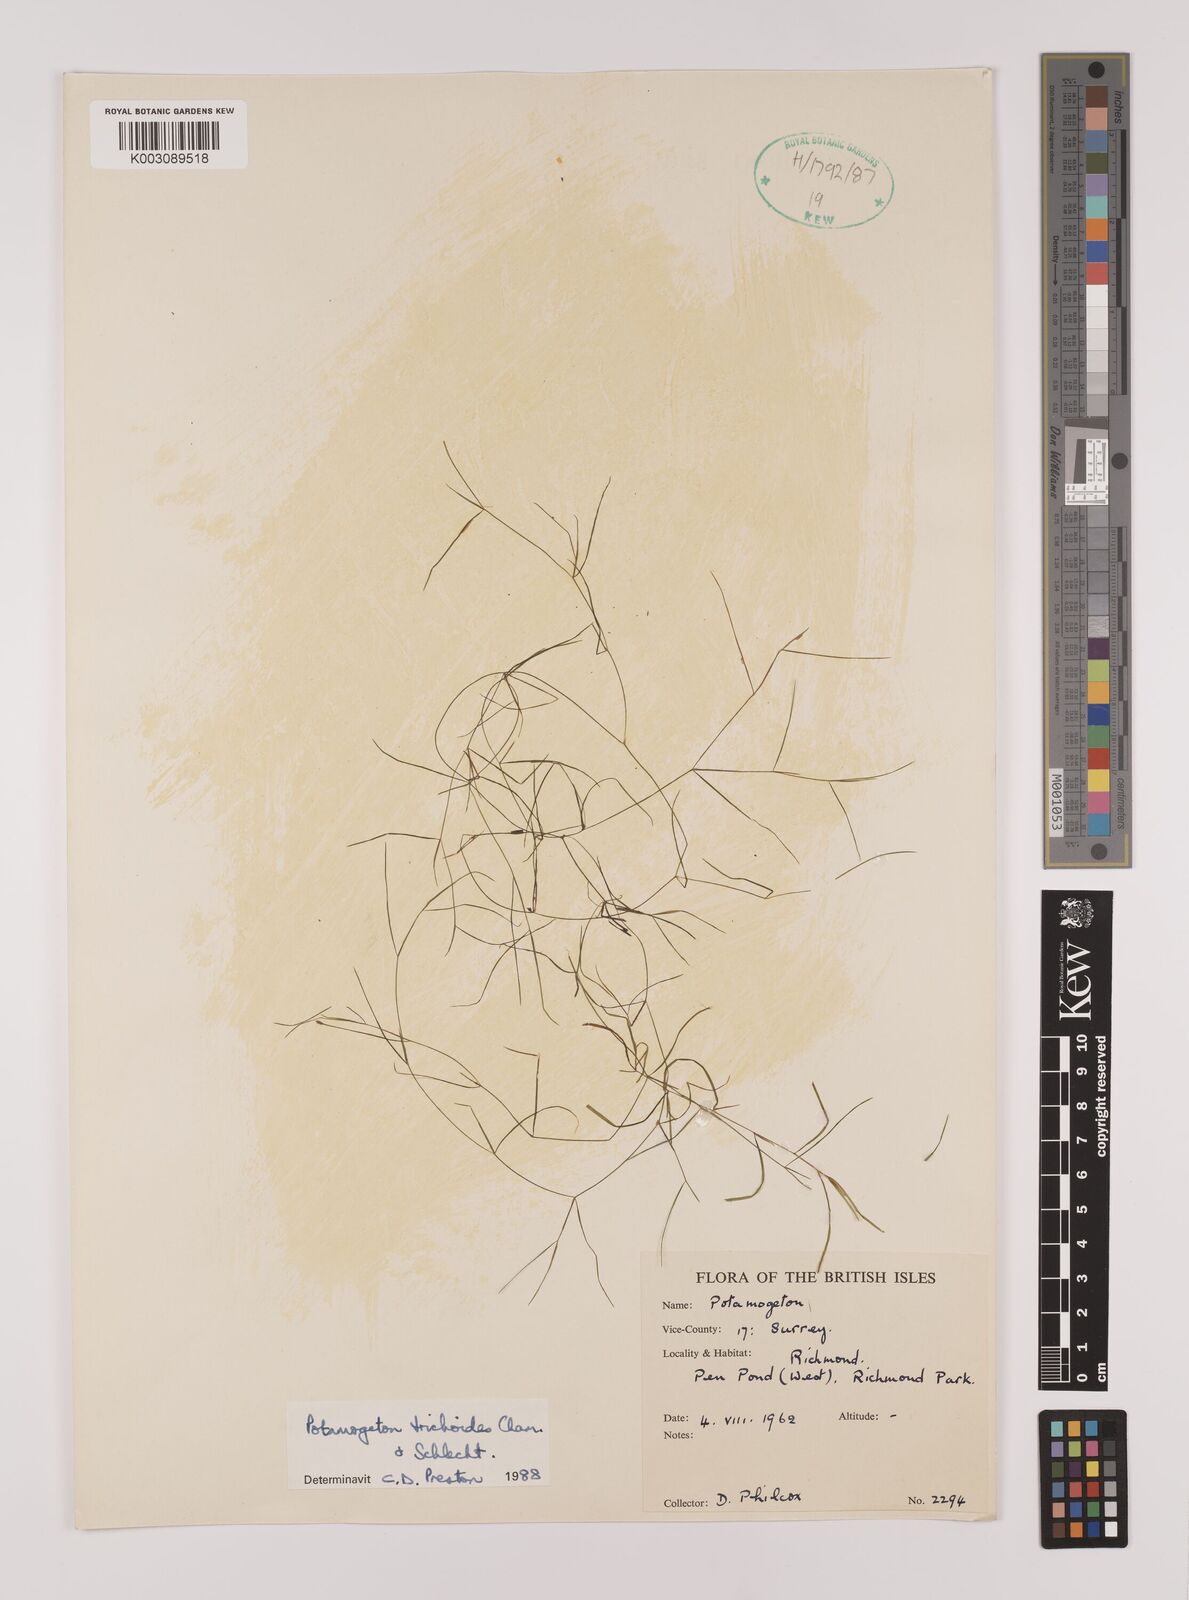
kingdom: Plantae
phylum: Tracheophyta
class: Liliopsida
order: Alismatales
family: Potamogetonaceae
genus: Potamogeton
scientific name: Potamogeton trichoides
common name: Hairlike pondweed
